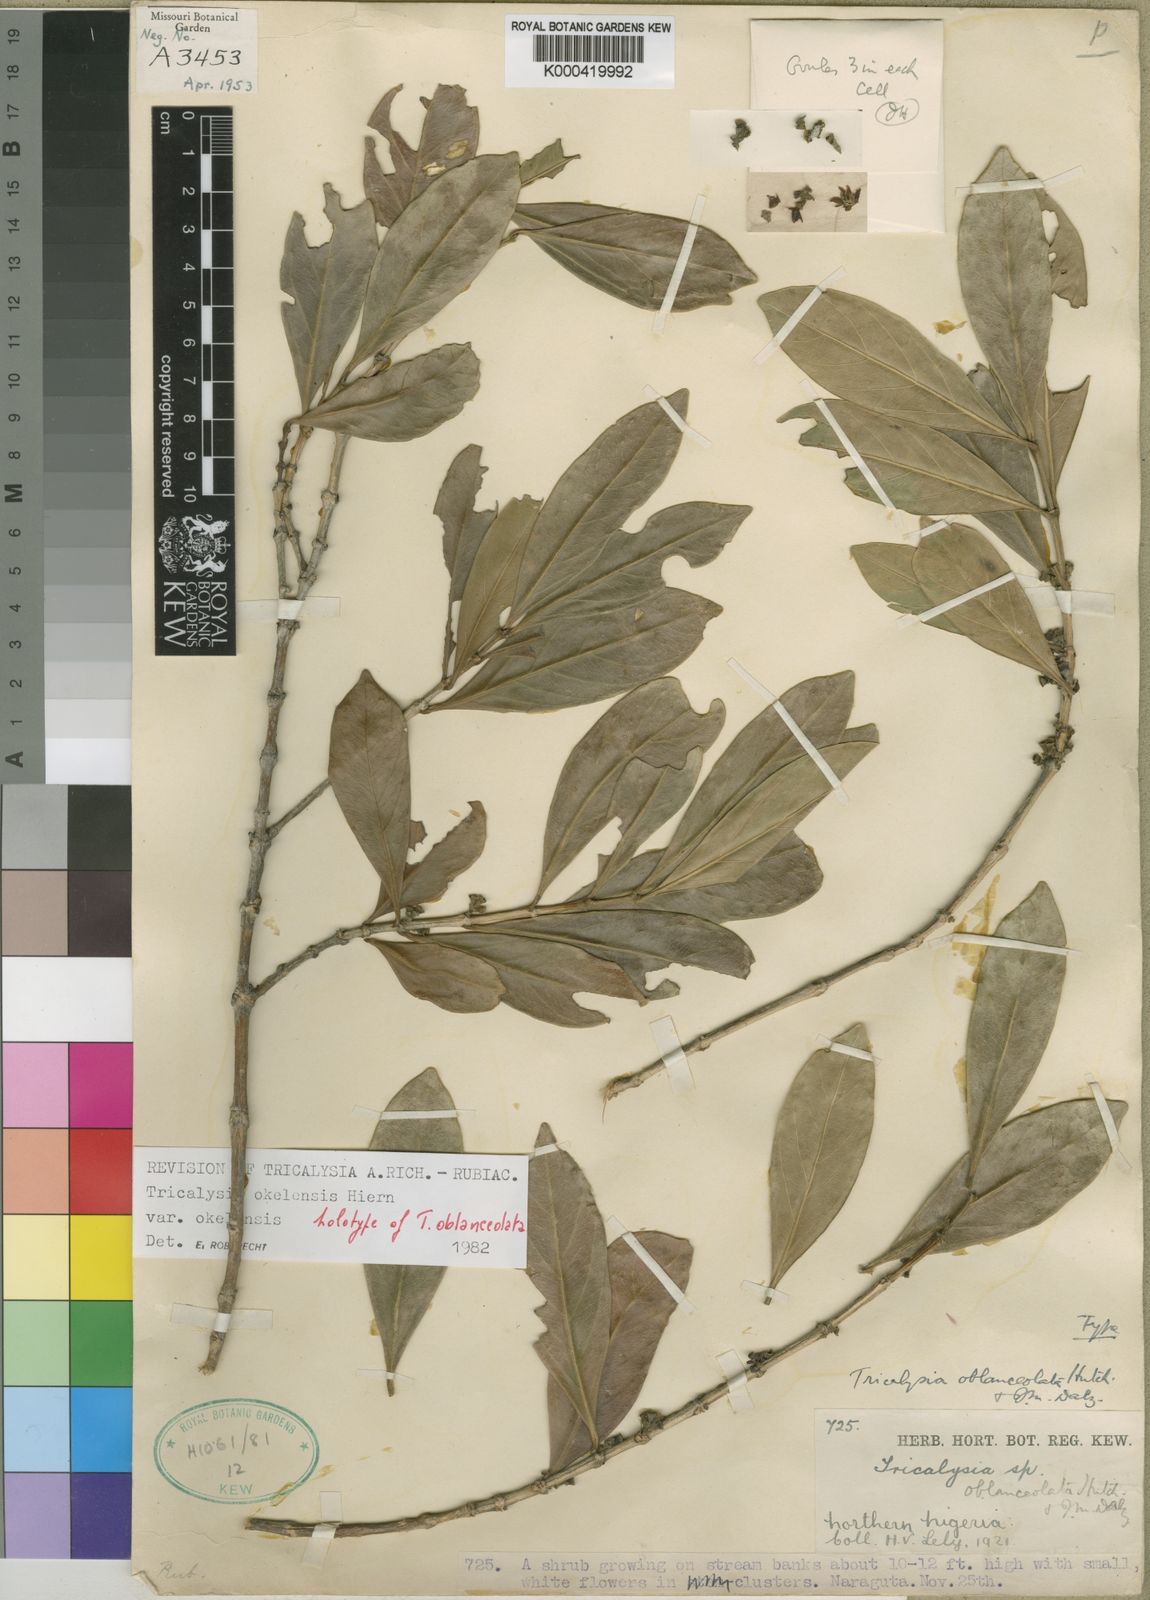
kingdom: Plantae
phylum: Tracheophyta
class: Magnoliopsida
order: Gentianales
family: Rubiaceae
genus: Tricalysia
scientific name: Tricalysia okelensis
